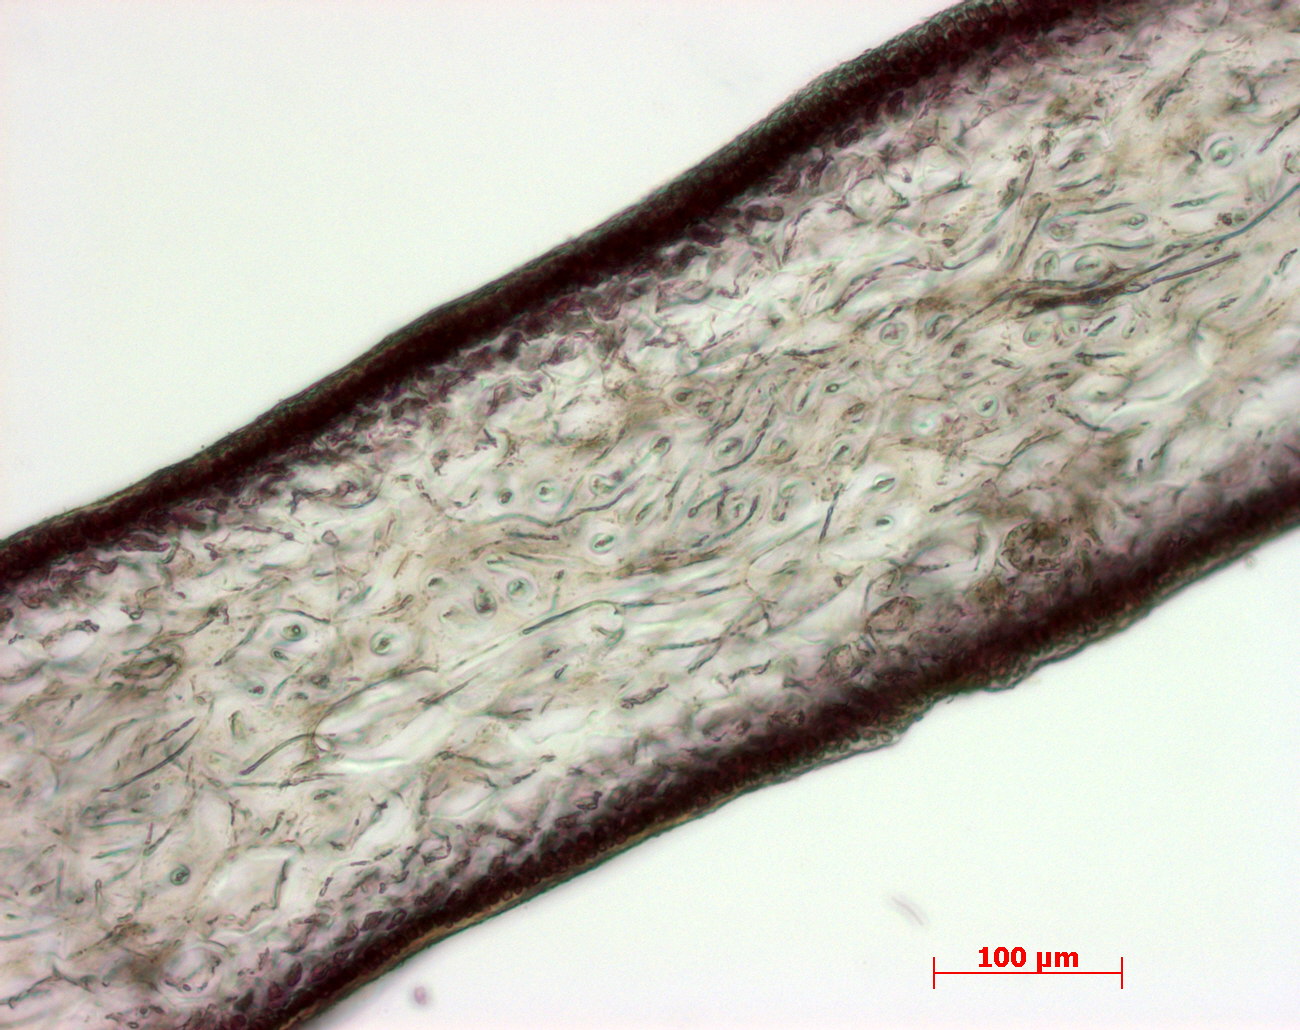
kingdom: Plantae
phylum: Rhodophyta
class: Florideophyceae
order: Gigartinales
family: Kallymeniaceae
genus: Psaromenia
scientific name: Psaromenia berggrenii
